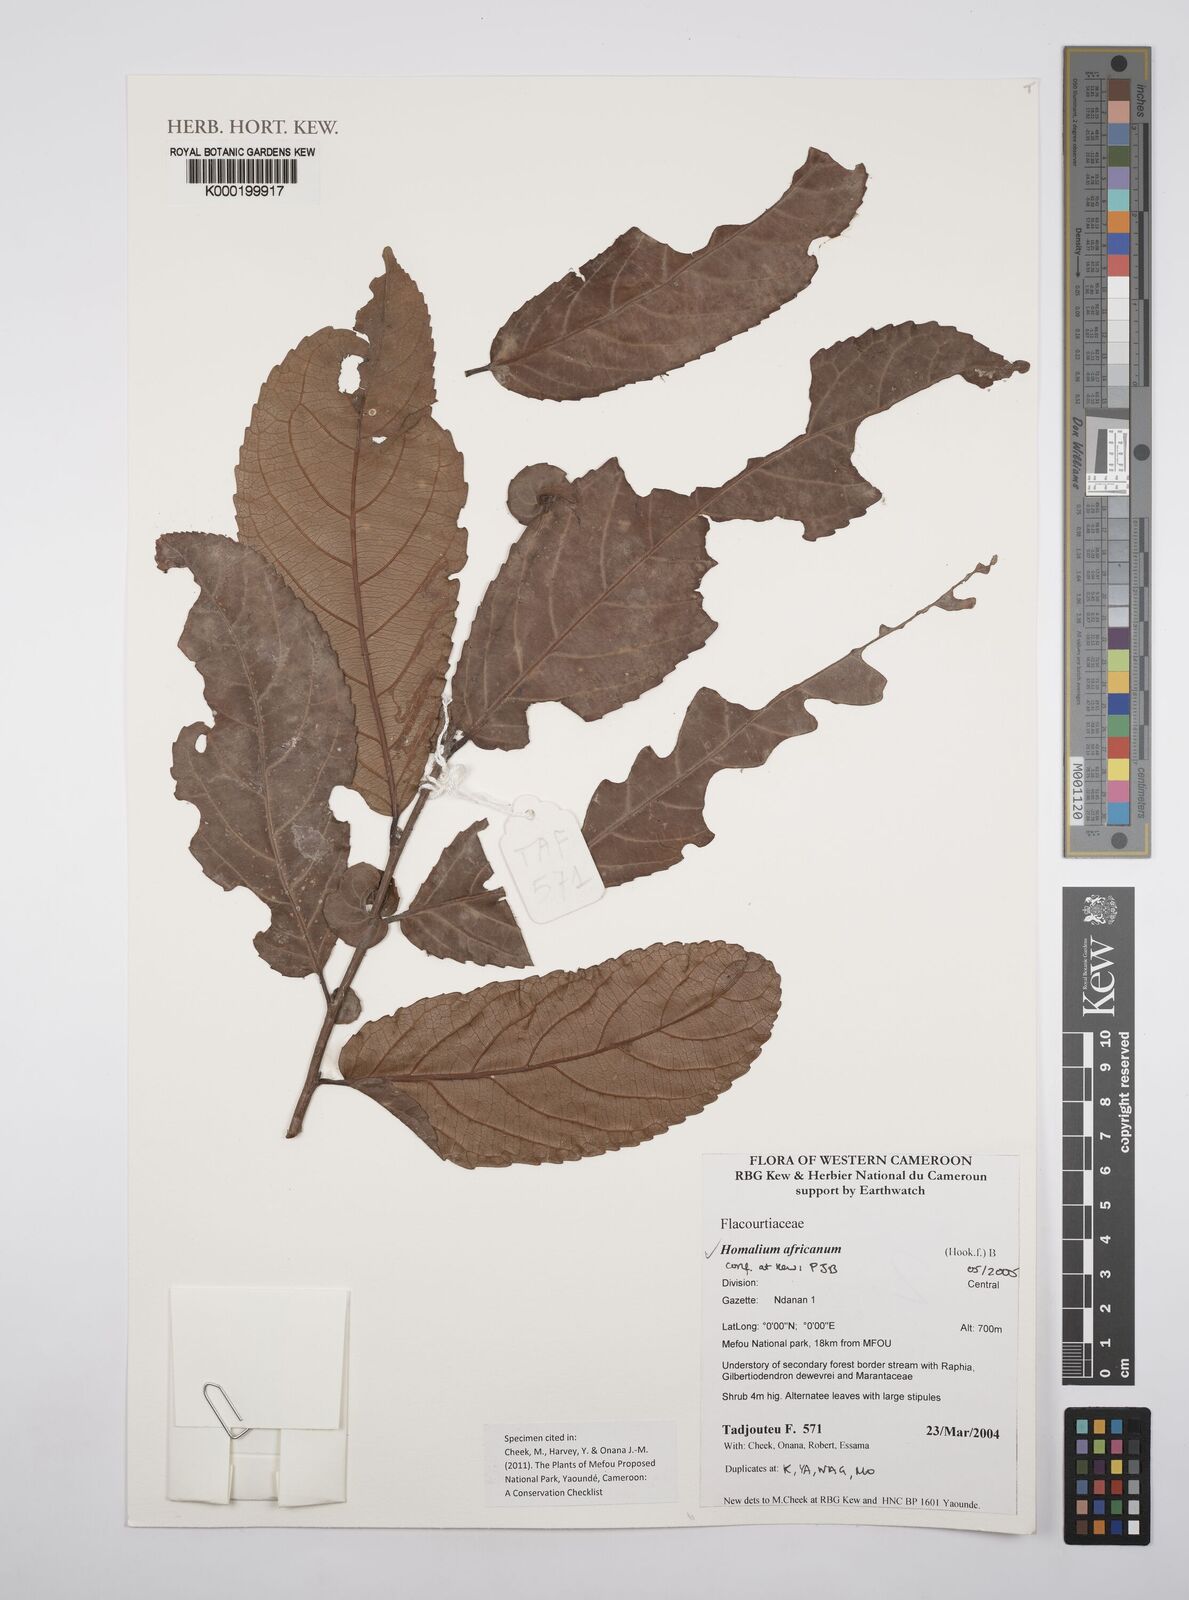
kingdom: Plantae
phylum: Tracheophyta
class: Magnoliopsida
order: Malpighiales
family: Salicaceae
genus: Homalium
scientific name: Homalium africanum
